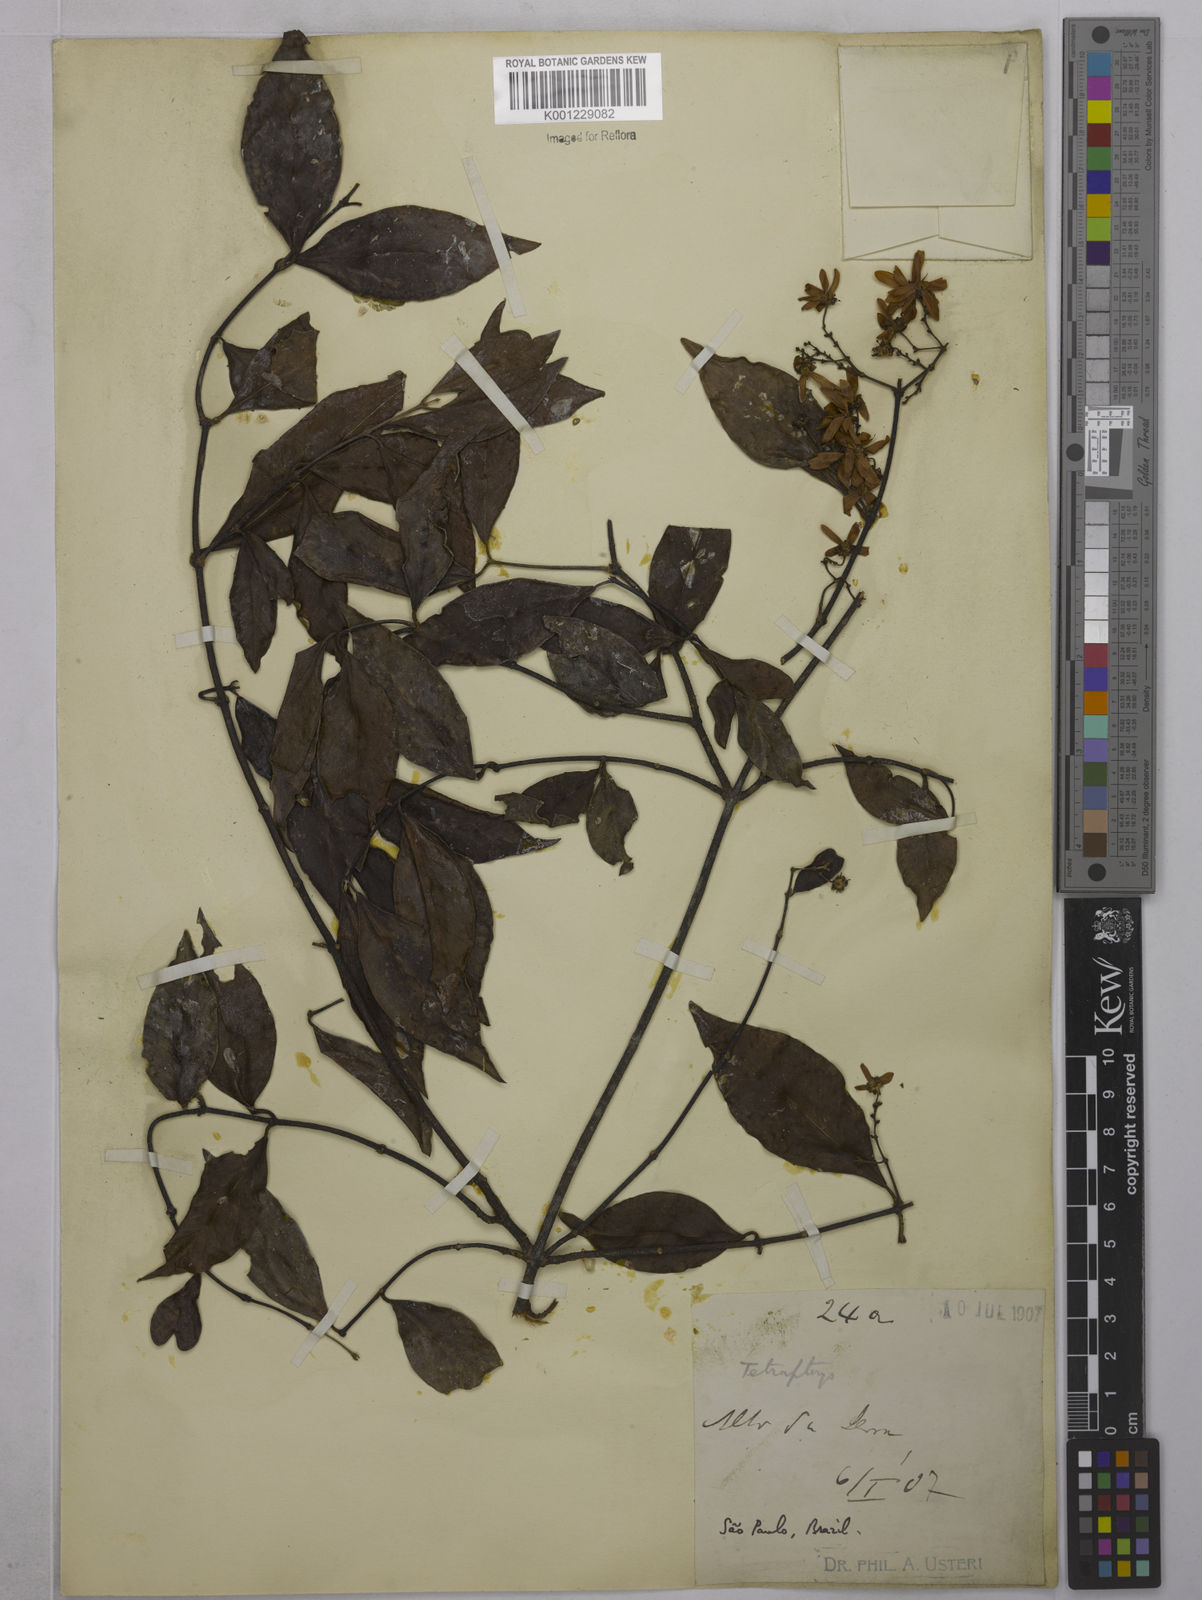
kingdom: Plantae
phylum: Tracheophyta
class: Magnoliopsida
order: Malpighiales
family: Malpighiaceae
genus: Niedenzuella
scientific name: Niedenzuella multiglandulosa
